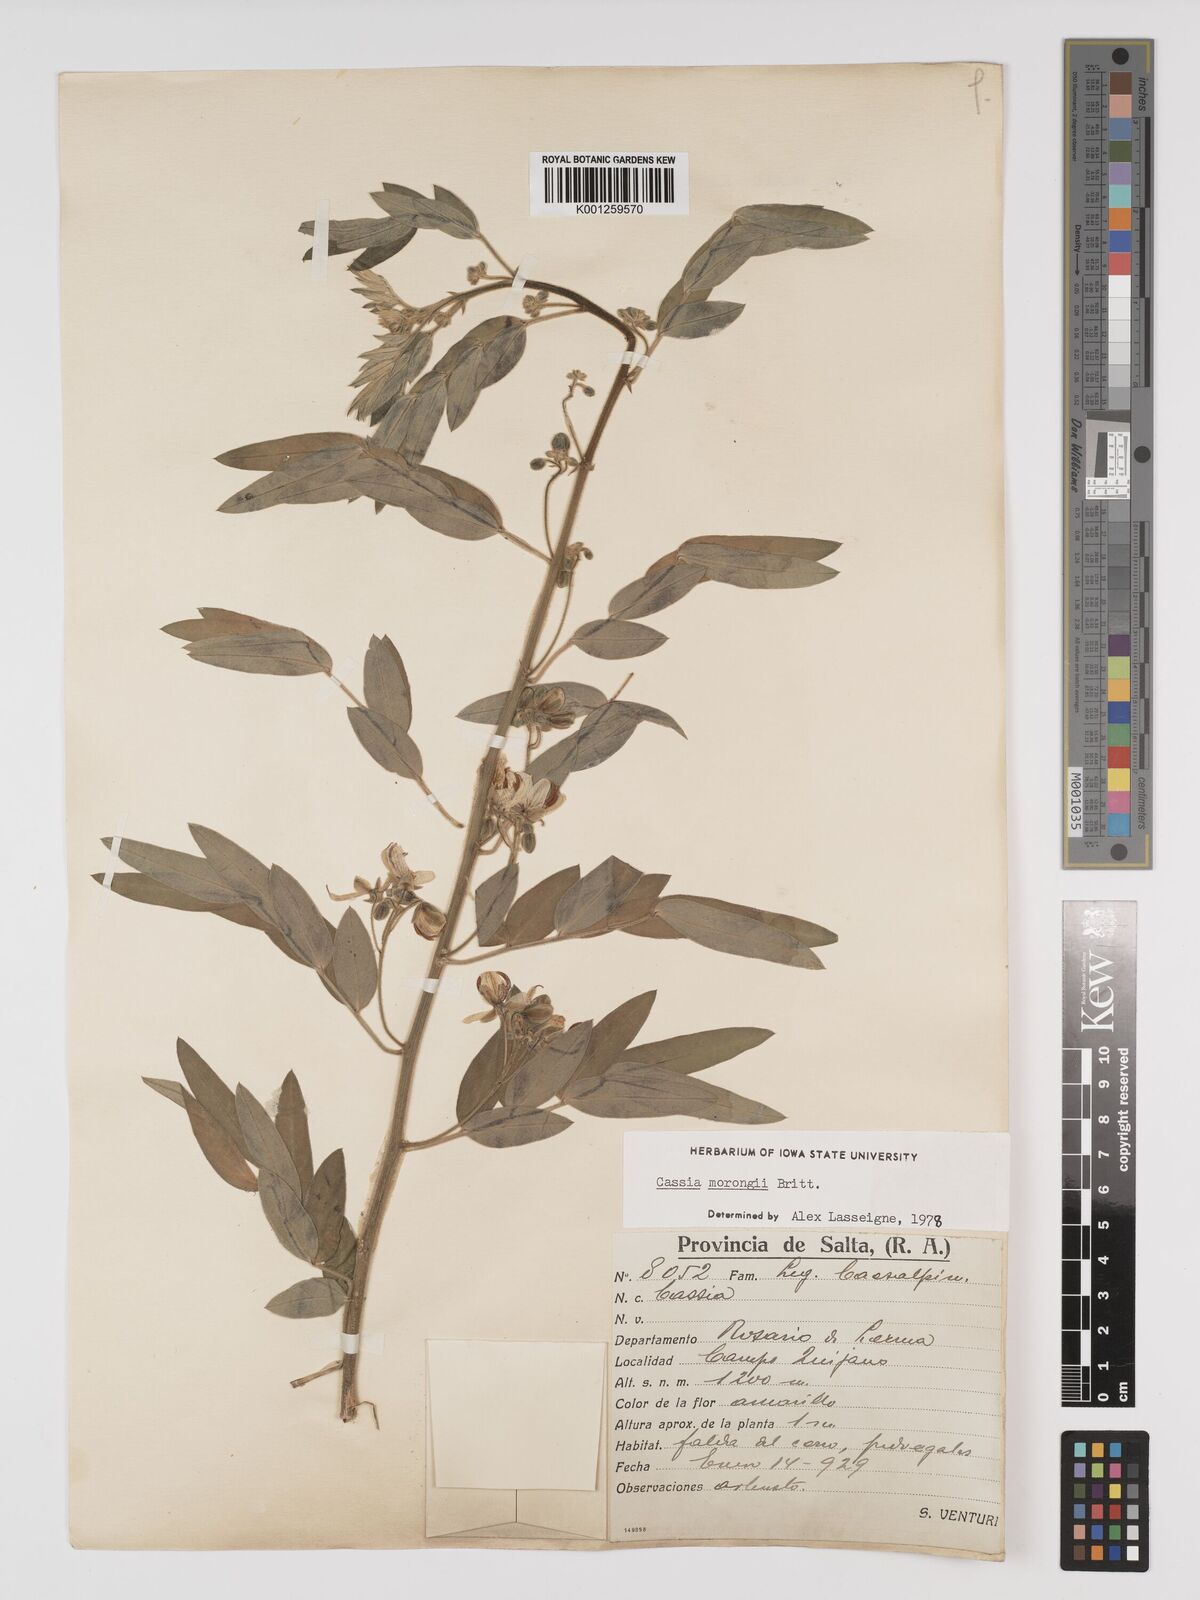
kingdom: Plantae
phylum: Tracheophyta
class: Magnoliopsida
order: Fabales
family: Fabaceae
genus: Senna
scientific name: Senna morongii
